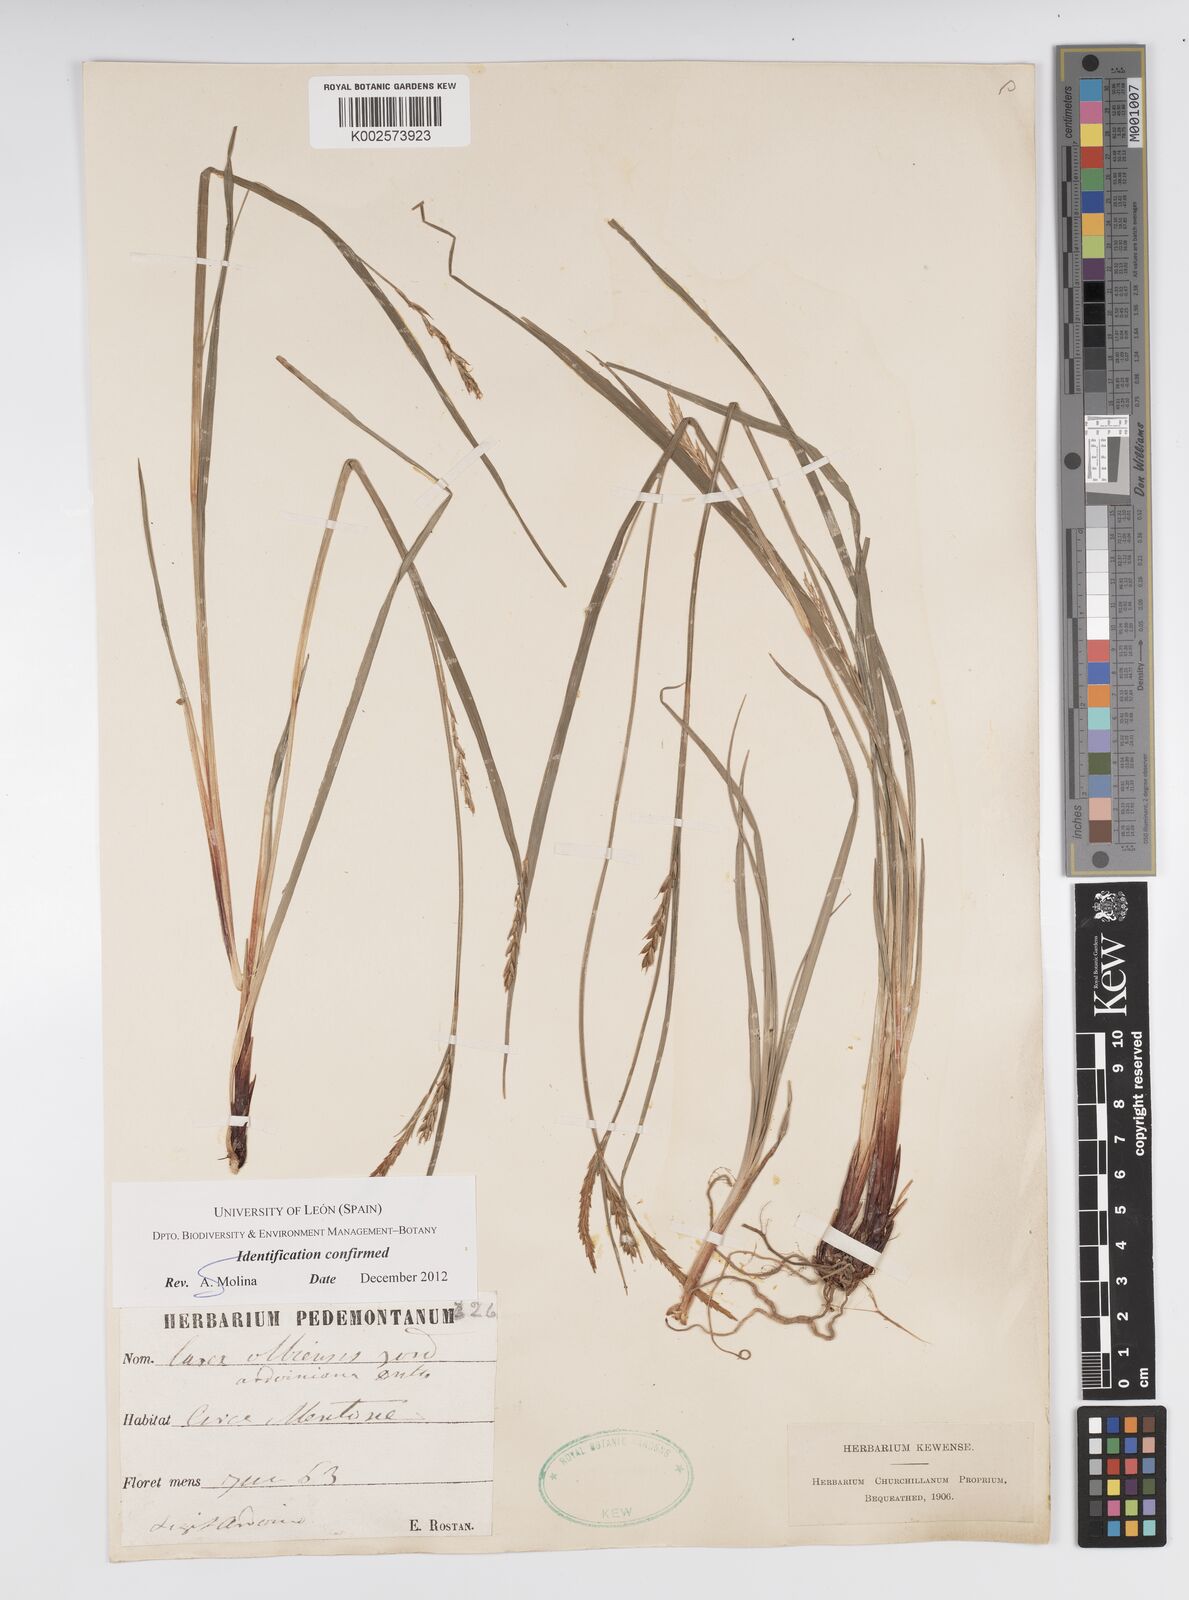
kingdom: Plantae
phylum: Tracheophyta
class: Liliopsida
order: Poales
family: Cyperaceae
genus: Carex
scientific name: Carex olbiensis
